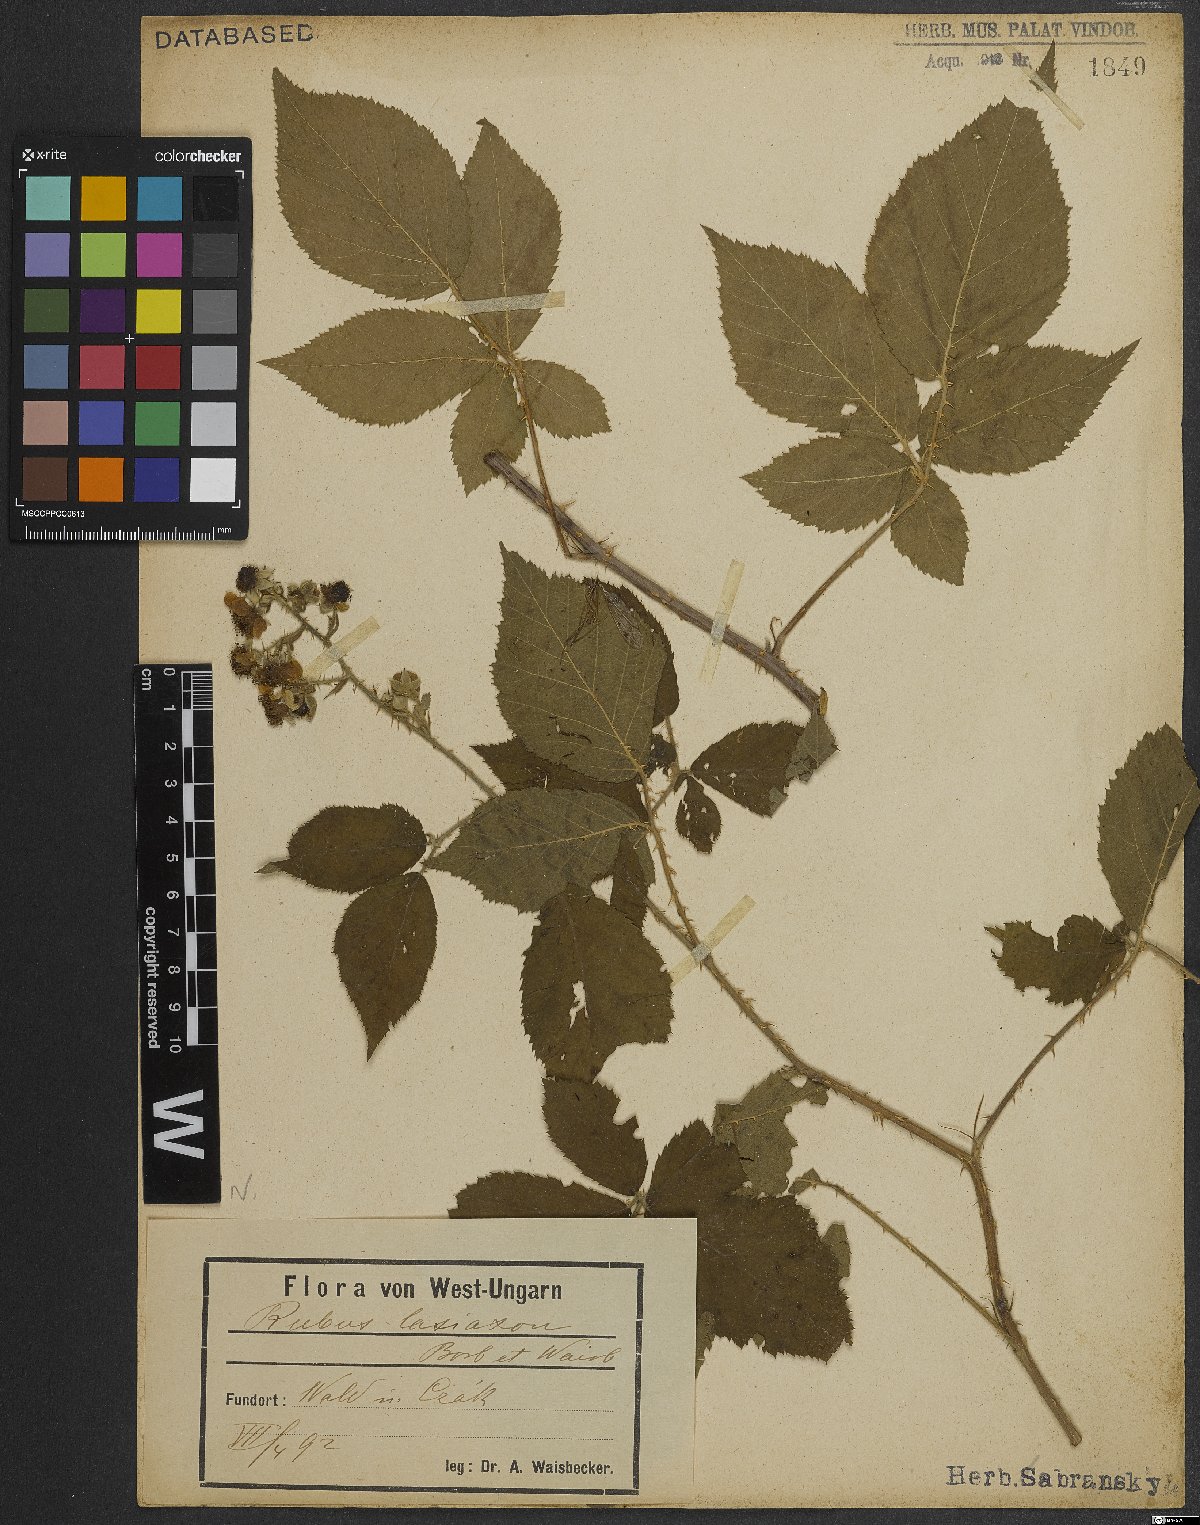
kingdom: Plantae
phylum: Tracheophyta
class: Magnoliopsida
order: Rosales
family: Rosaceae
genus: Rubus
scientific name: Rubus ferox
